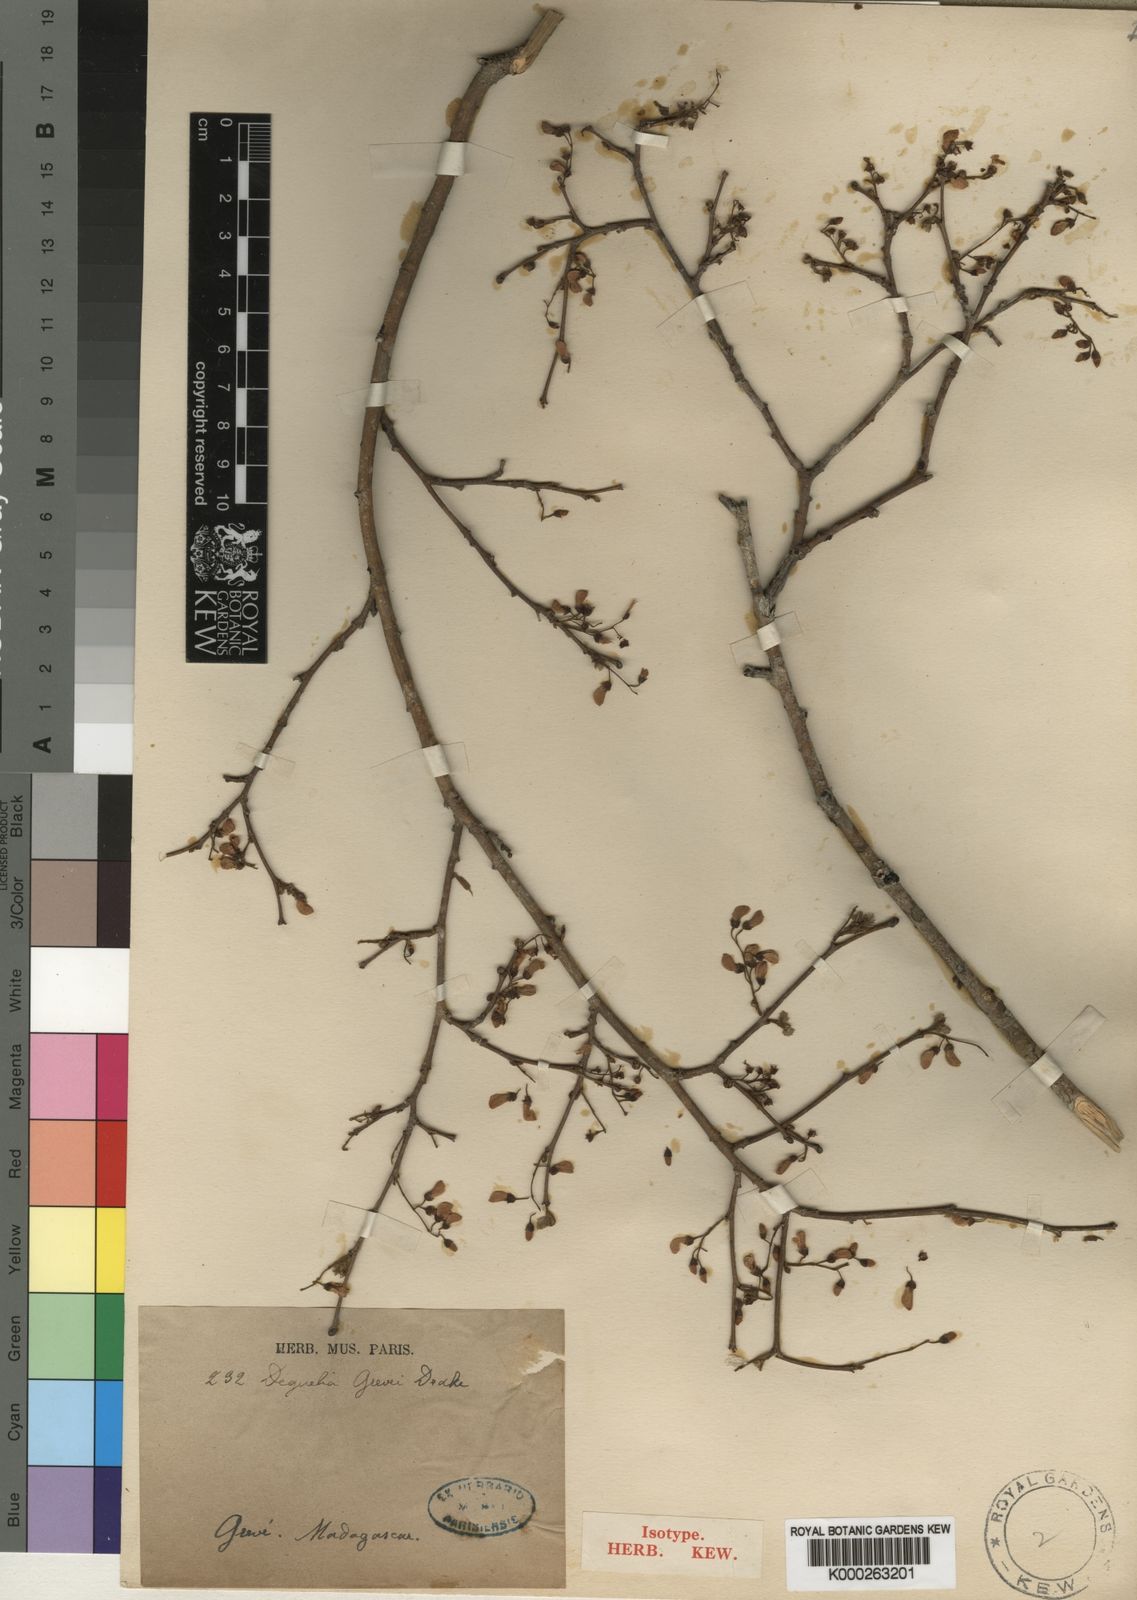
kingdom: Plantae
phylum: Tracheophyta
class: Magnoliopsida
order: Fabales
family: Fabaceae
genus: Pongamiopsis
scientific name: Pongamiopsis pervilleana
